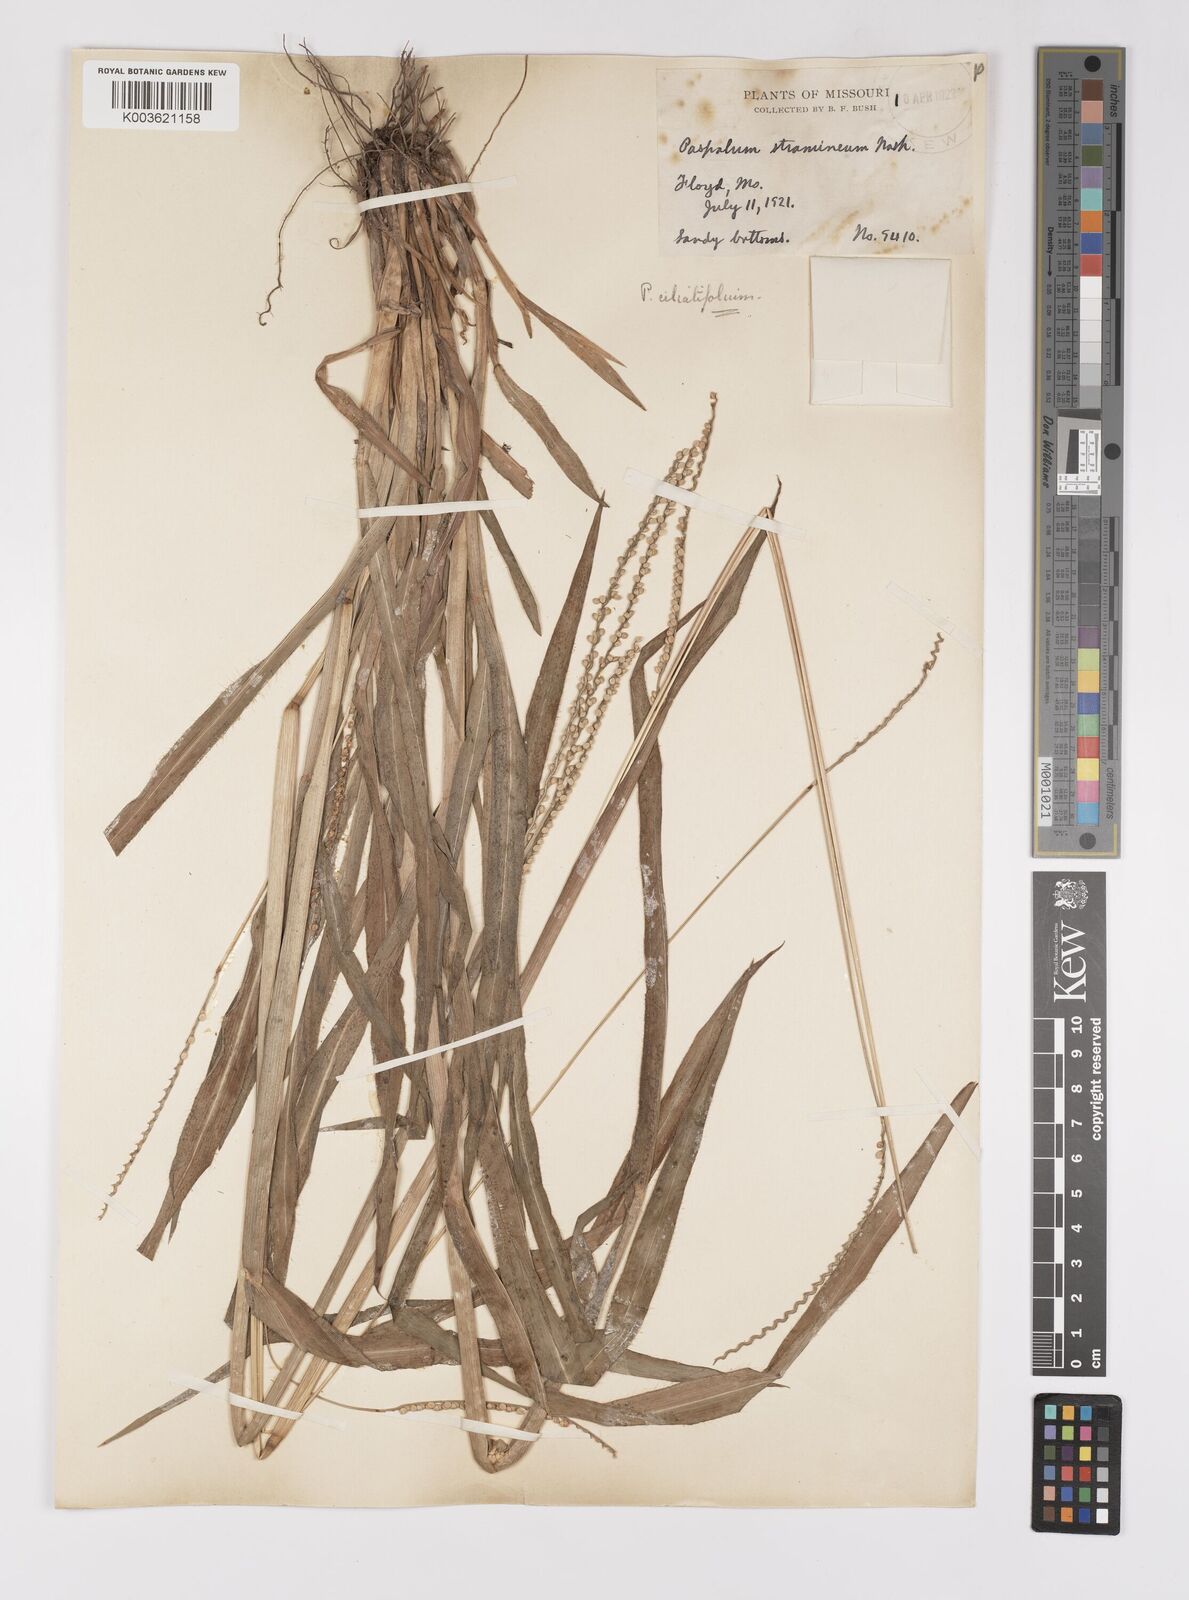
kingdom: Plantae
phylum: Tracheophyta
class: Liliopsida
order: Poales
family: Poaceae
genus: Paspalum
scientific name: Paspalum setaceum
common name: Slender paspalum
